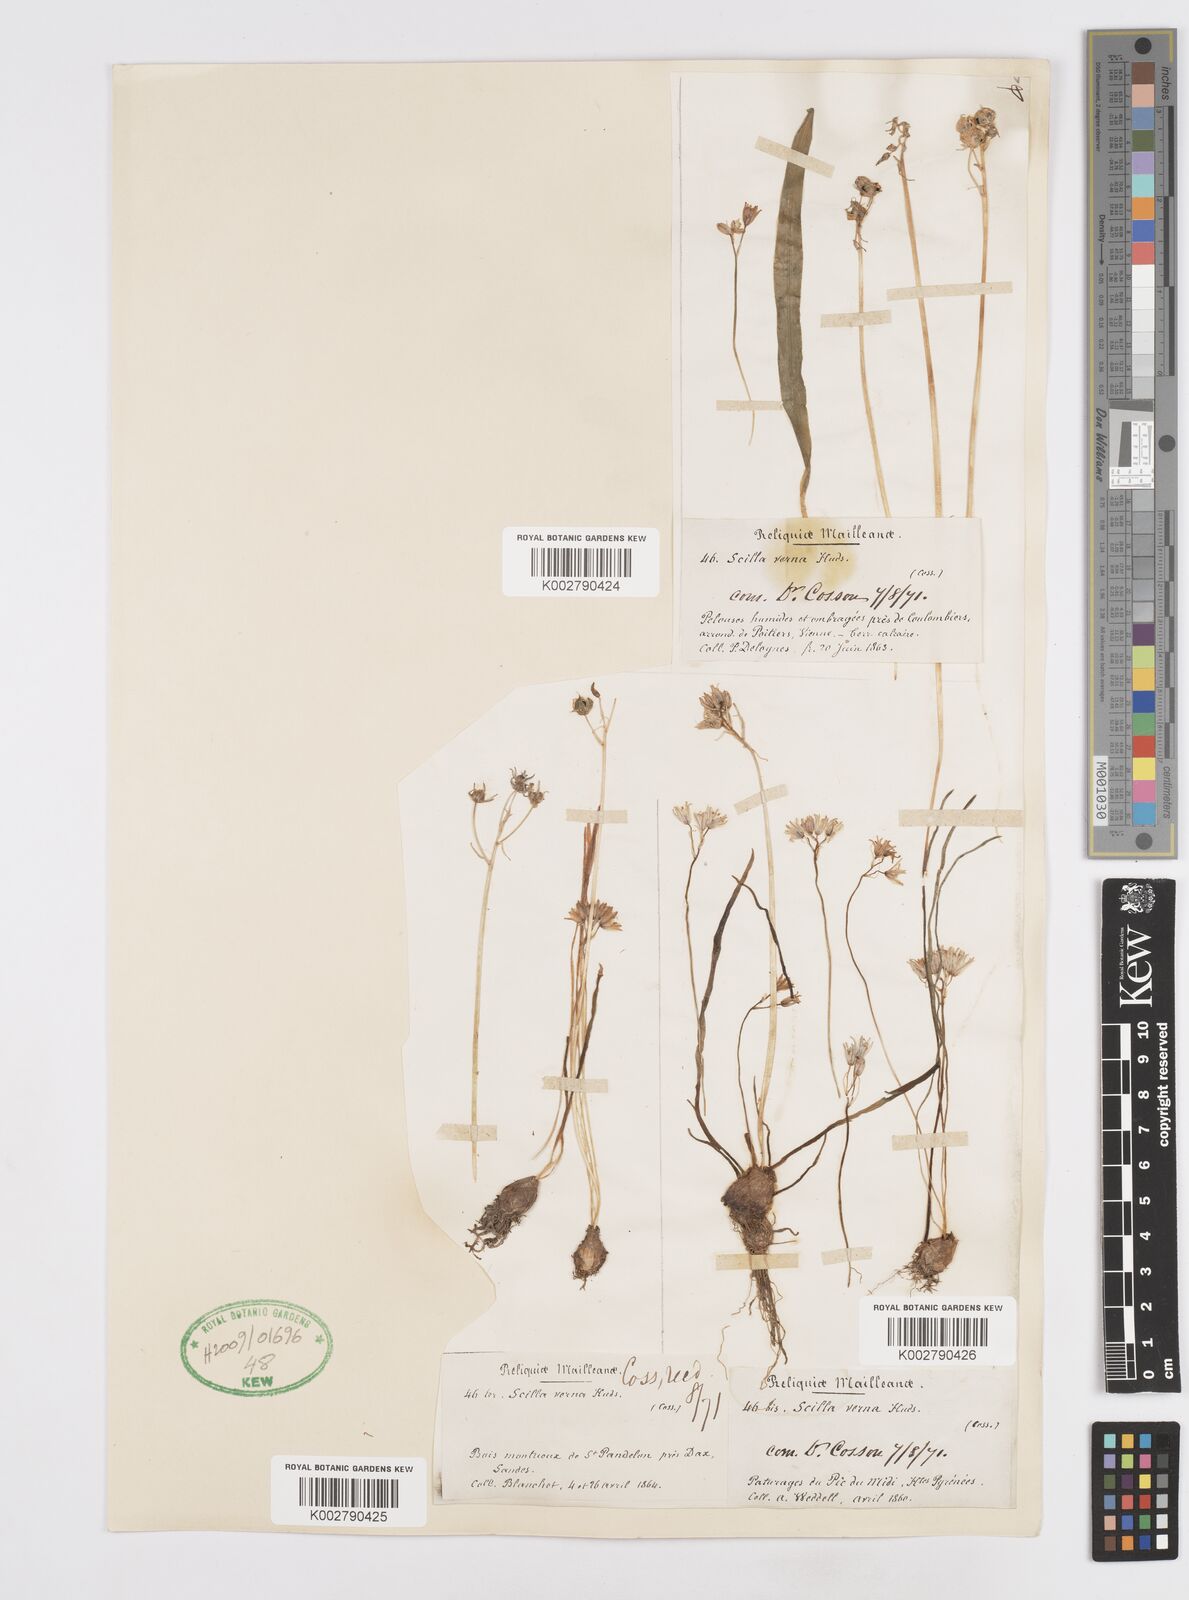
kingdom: Plantae
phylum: Tracheophyta
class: Liliopsida
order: Asparagales
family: Asparagaceae
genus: Scilla
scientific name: Scilla verna
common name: Spring squill
